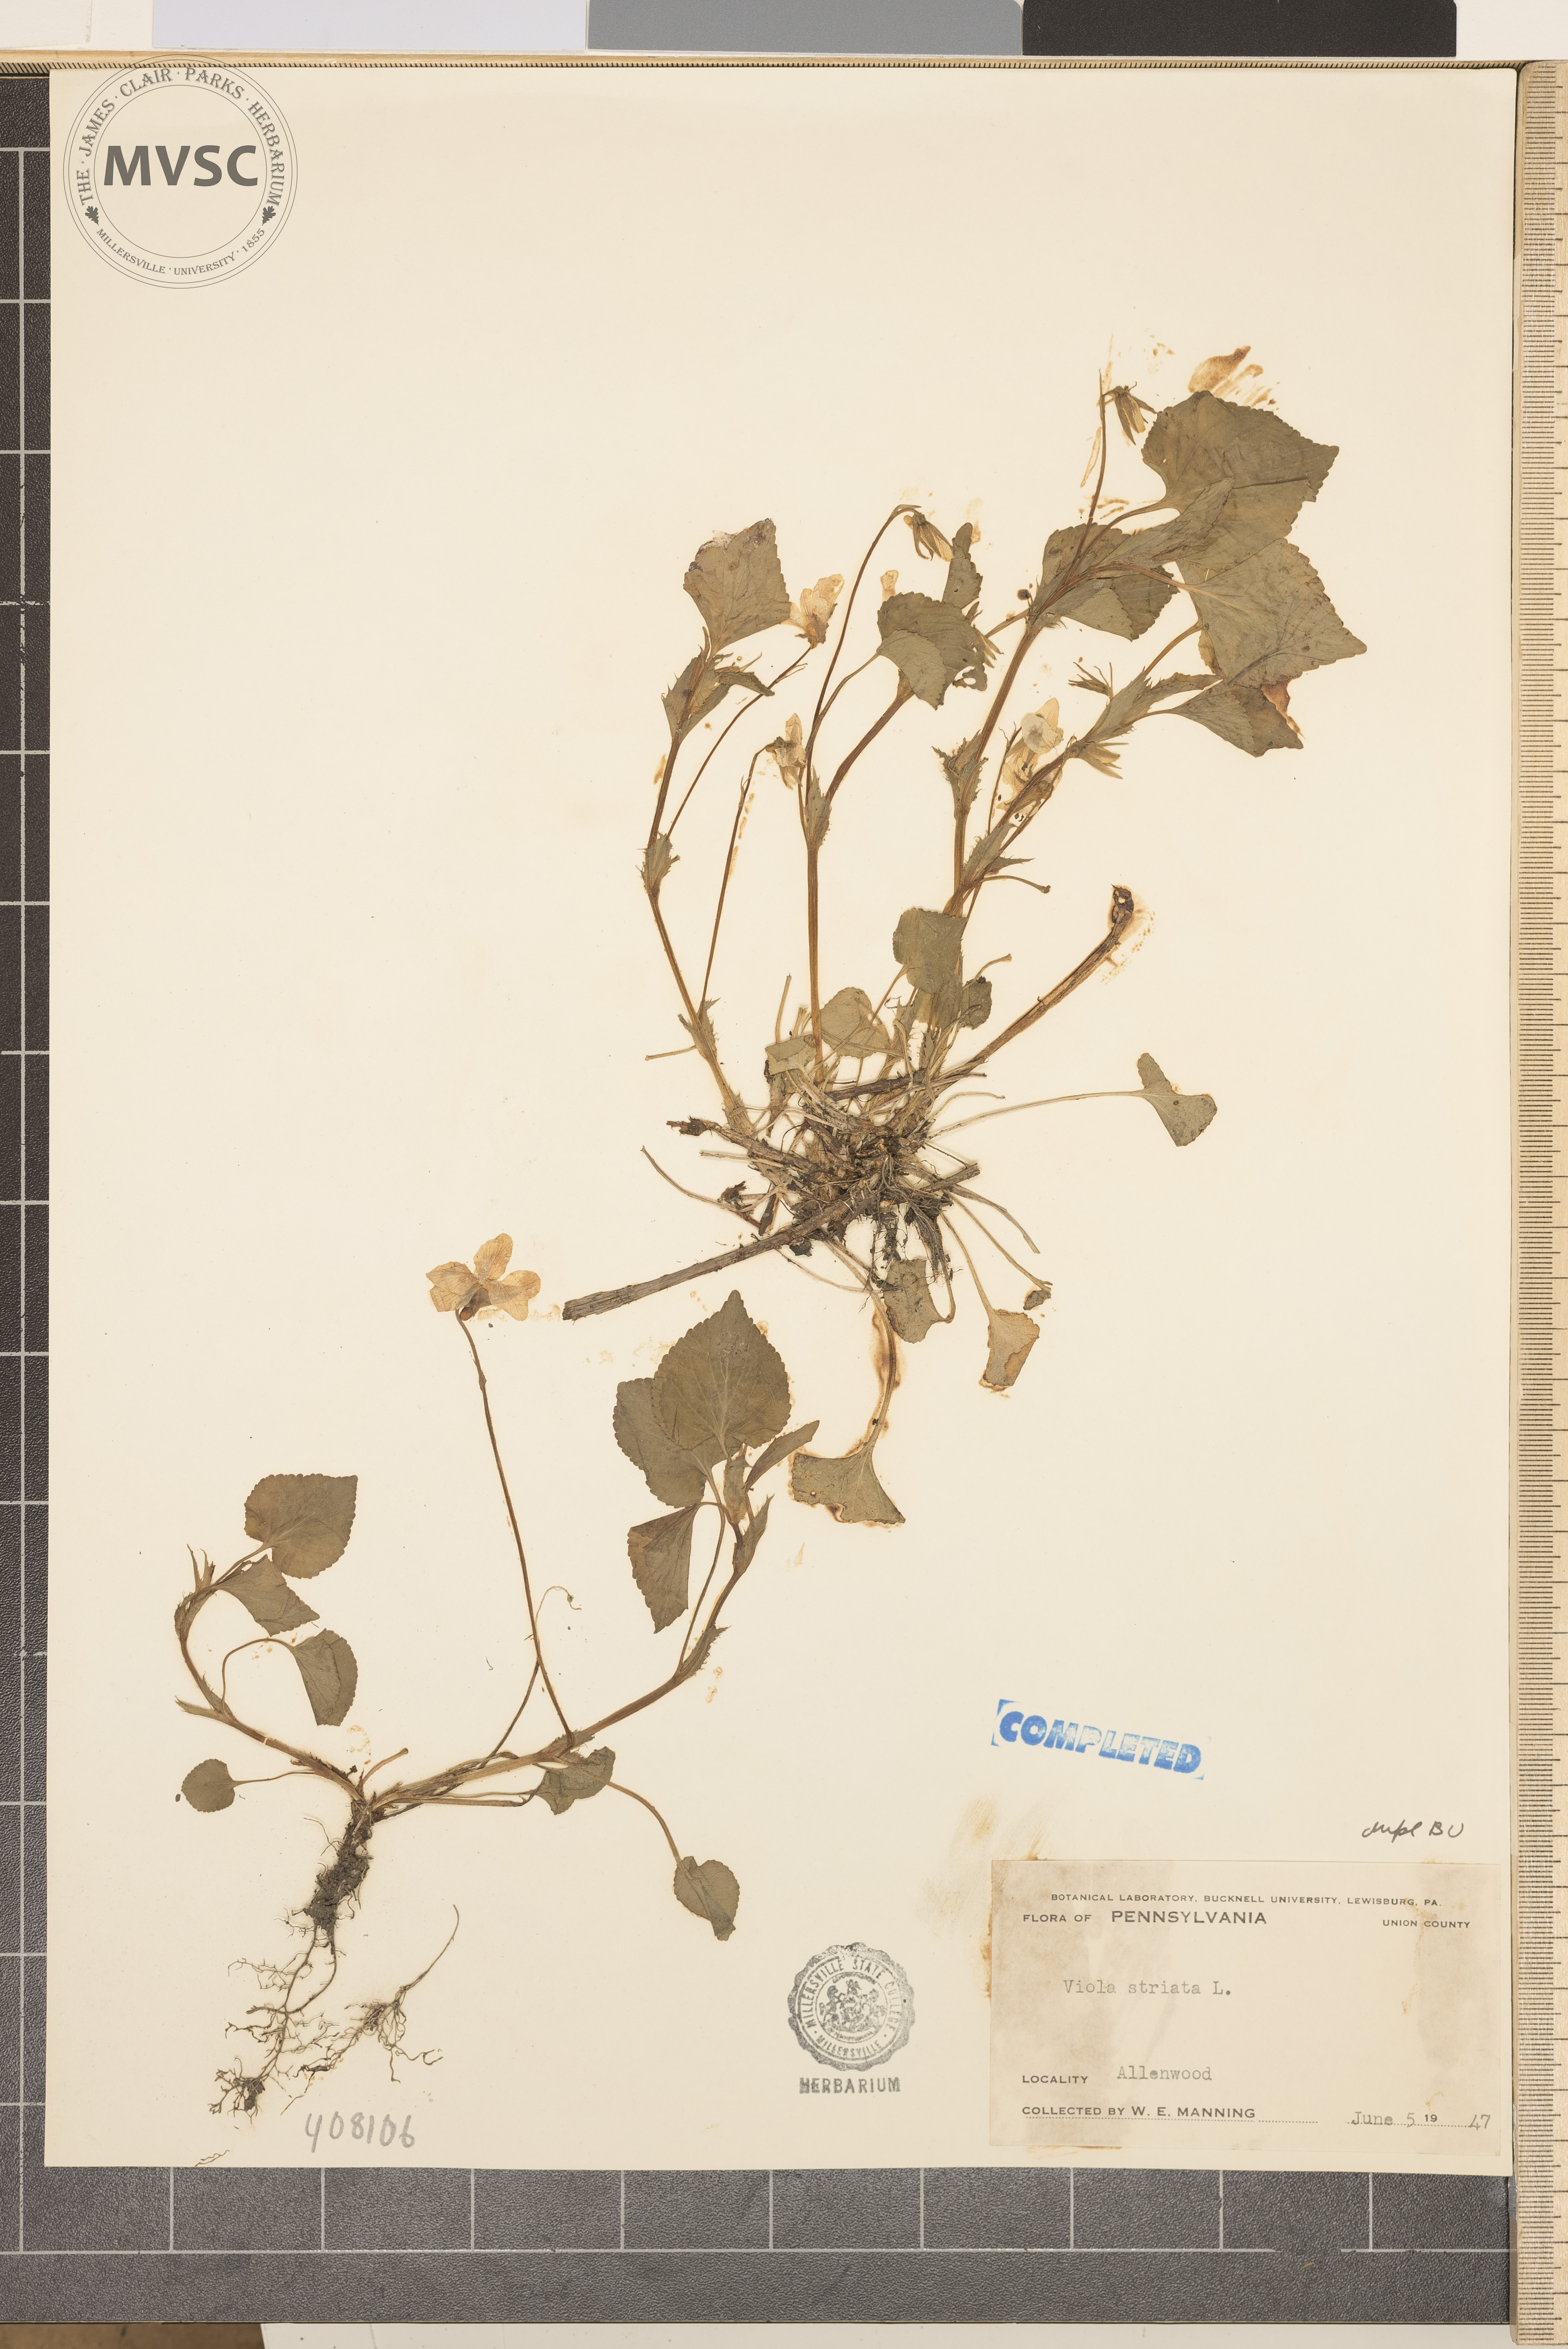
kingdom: Plantae
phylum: Tracheophyta
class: Magnoliopsida
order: Malpighiales
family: Violaceae
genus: Viola
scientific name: Viola striata
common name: Cream violet
